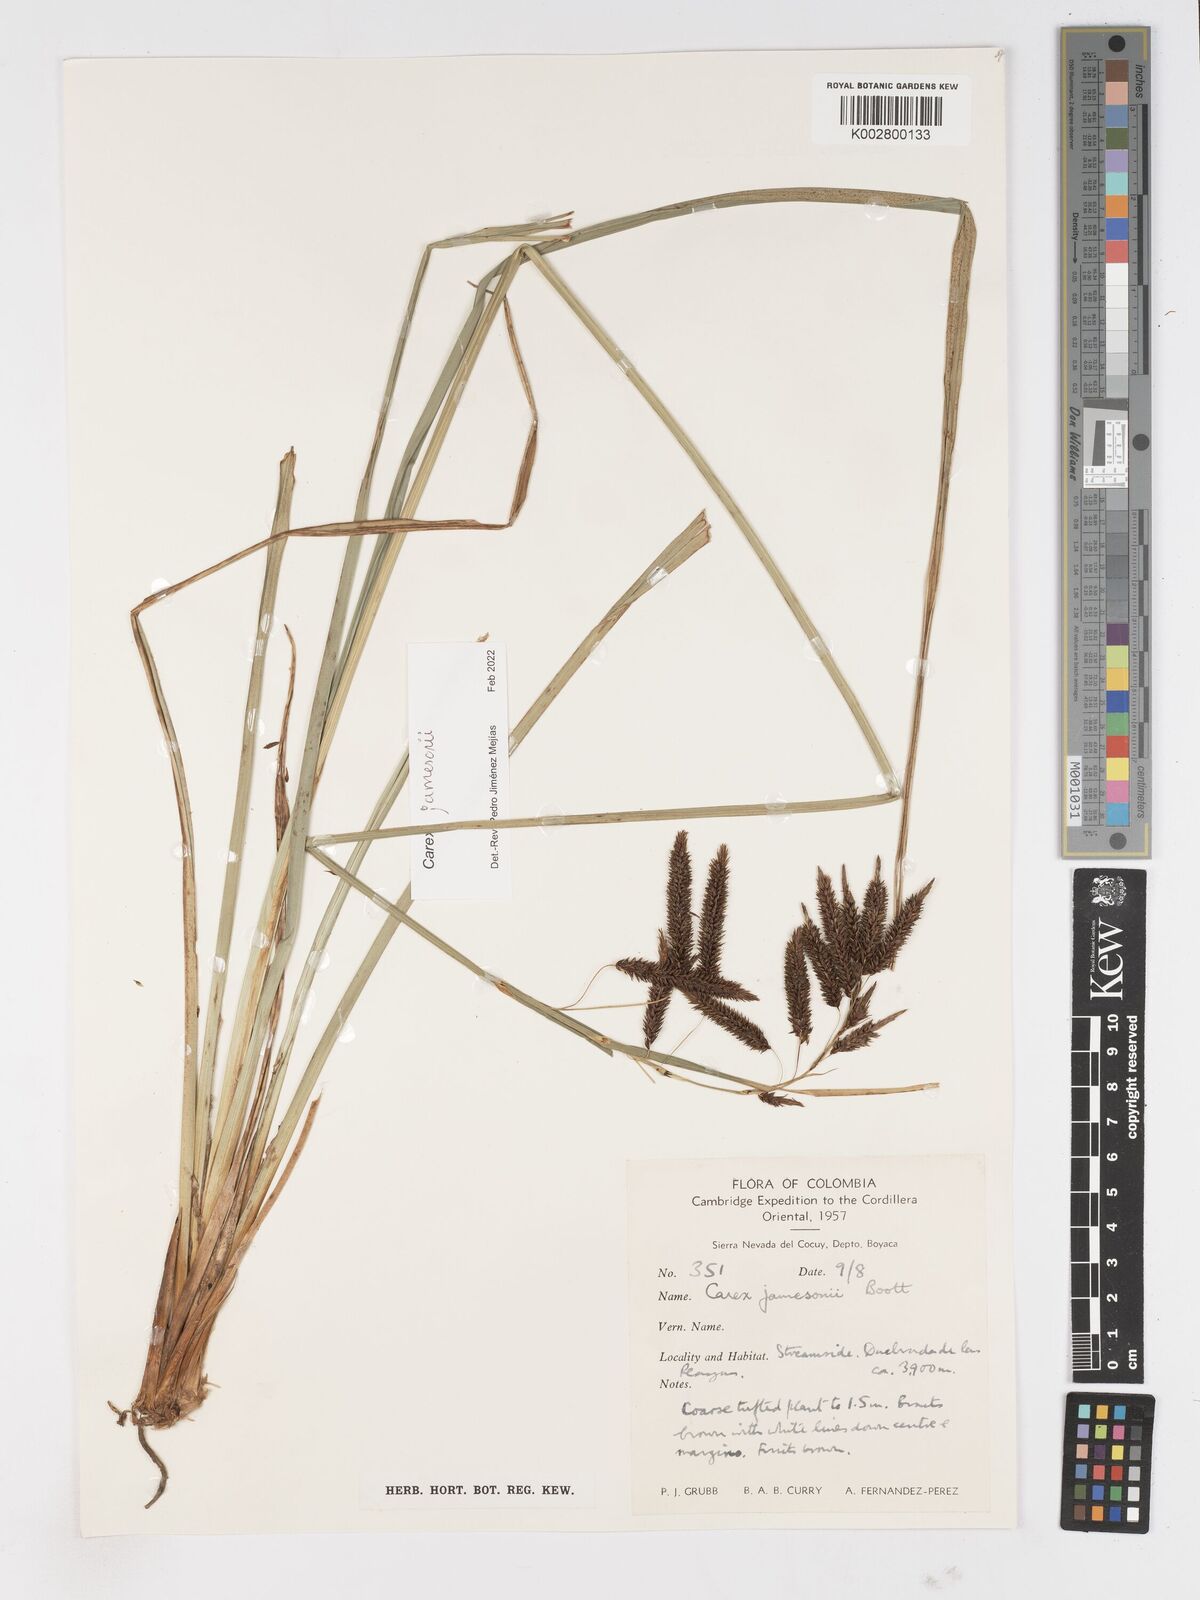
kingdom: Plantae
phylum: Tracheophyta
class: Liliopsida
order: Poales
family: Cyperaceae
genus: Carex
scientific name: Carex jamesonii
